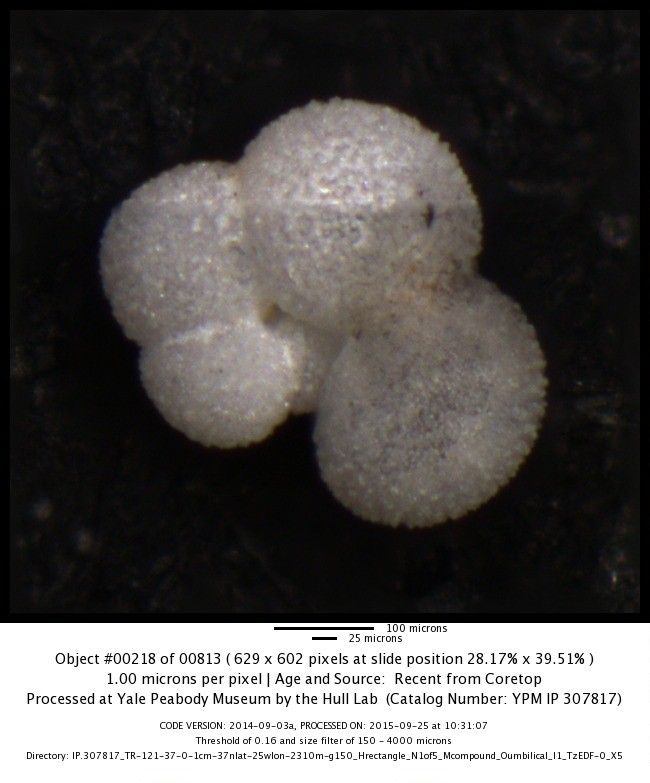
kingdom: Chromista
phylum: Foraminifera
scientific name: Foraminifera
